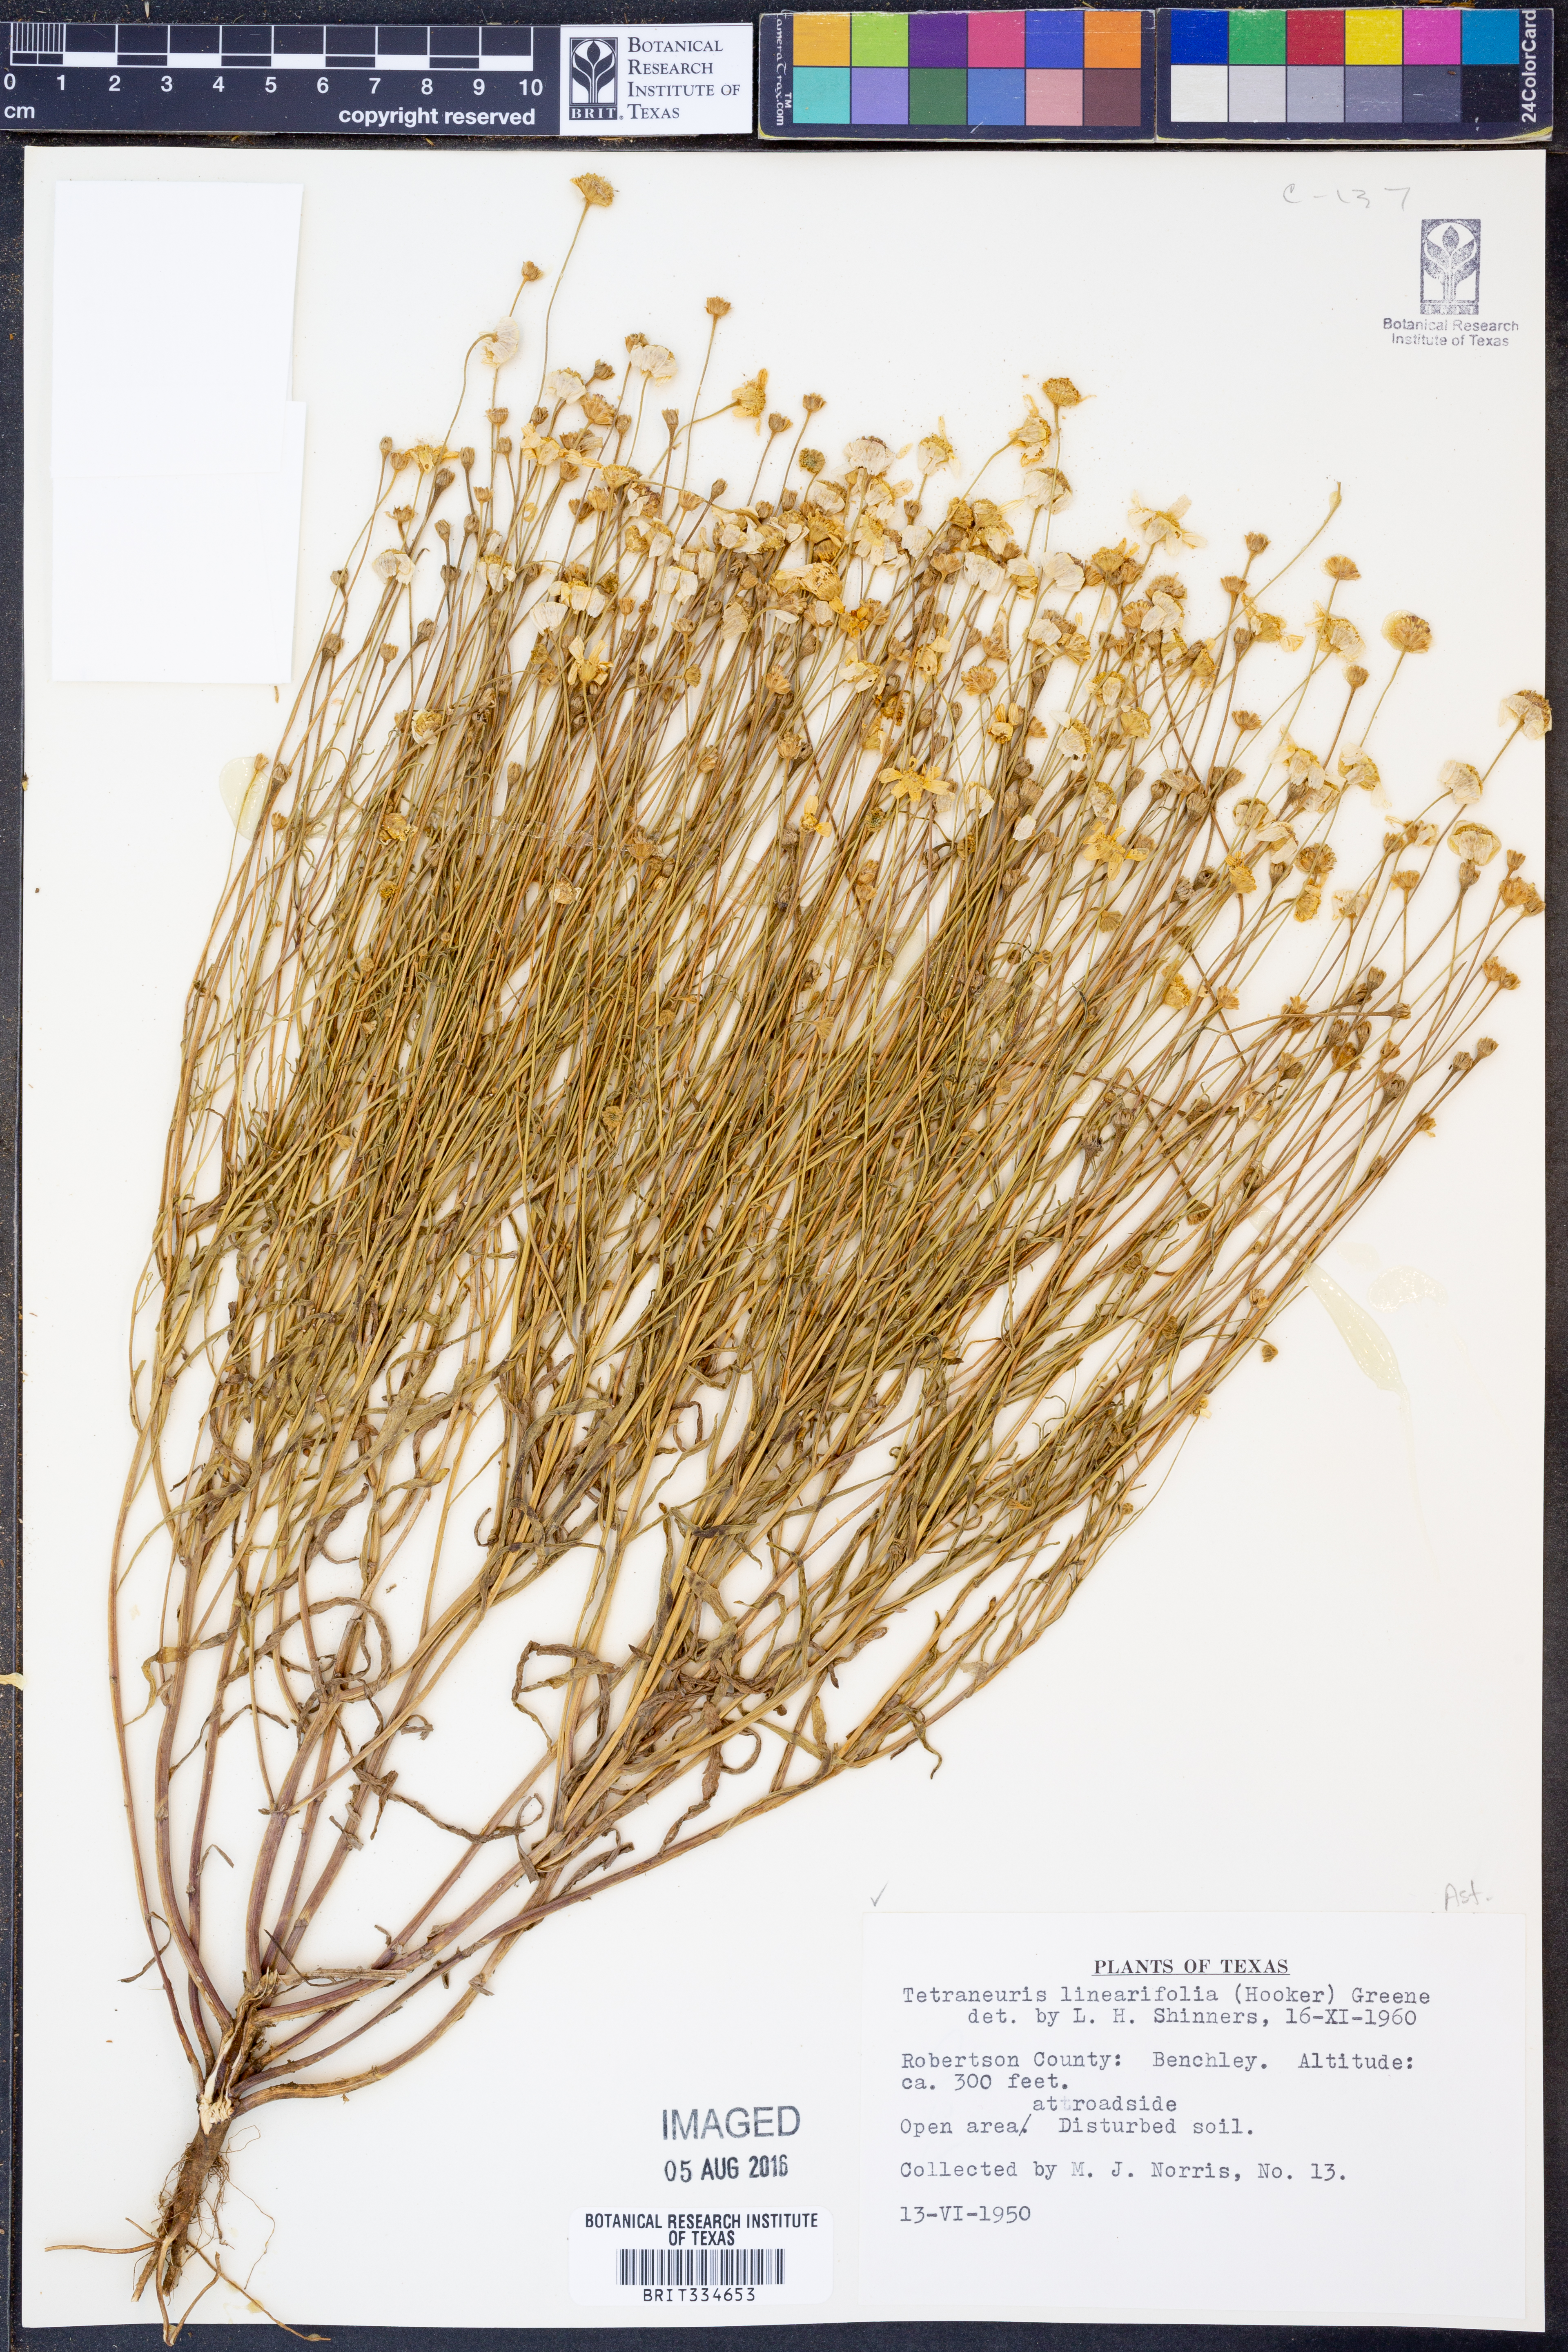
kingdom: Plantae
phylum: Tracheophyta
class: Magnoliopsida
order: Asterales
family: Asteraceae
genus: Tetraneuris
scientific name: Tetraneuris linearifolia
